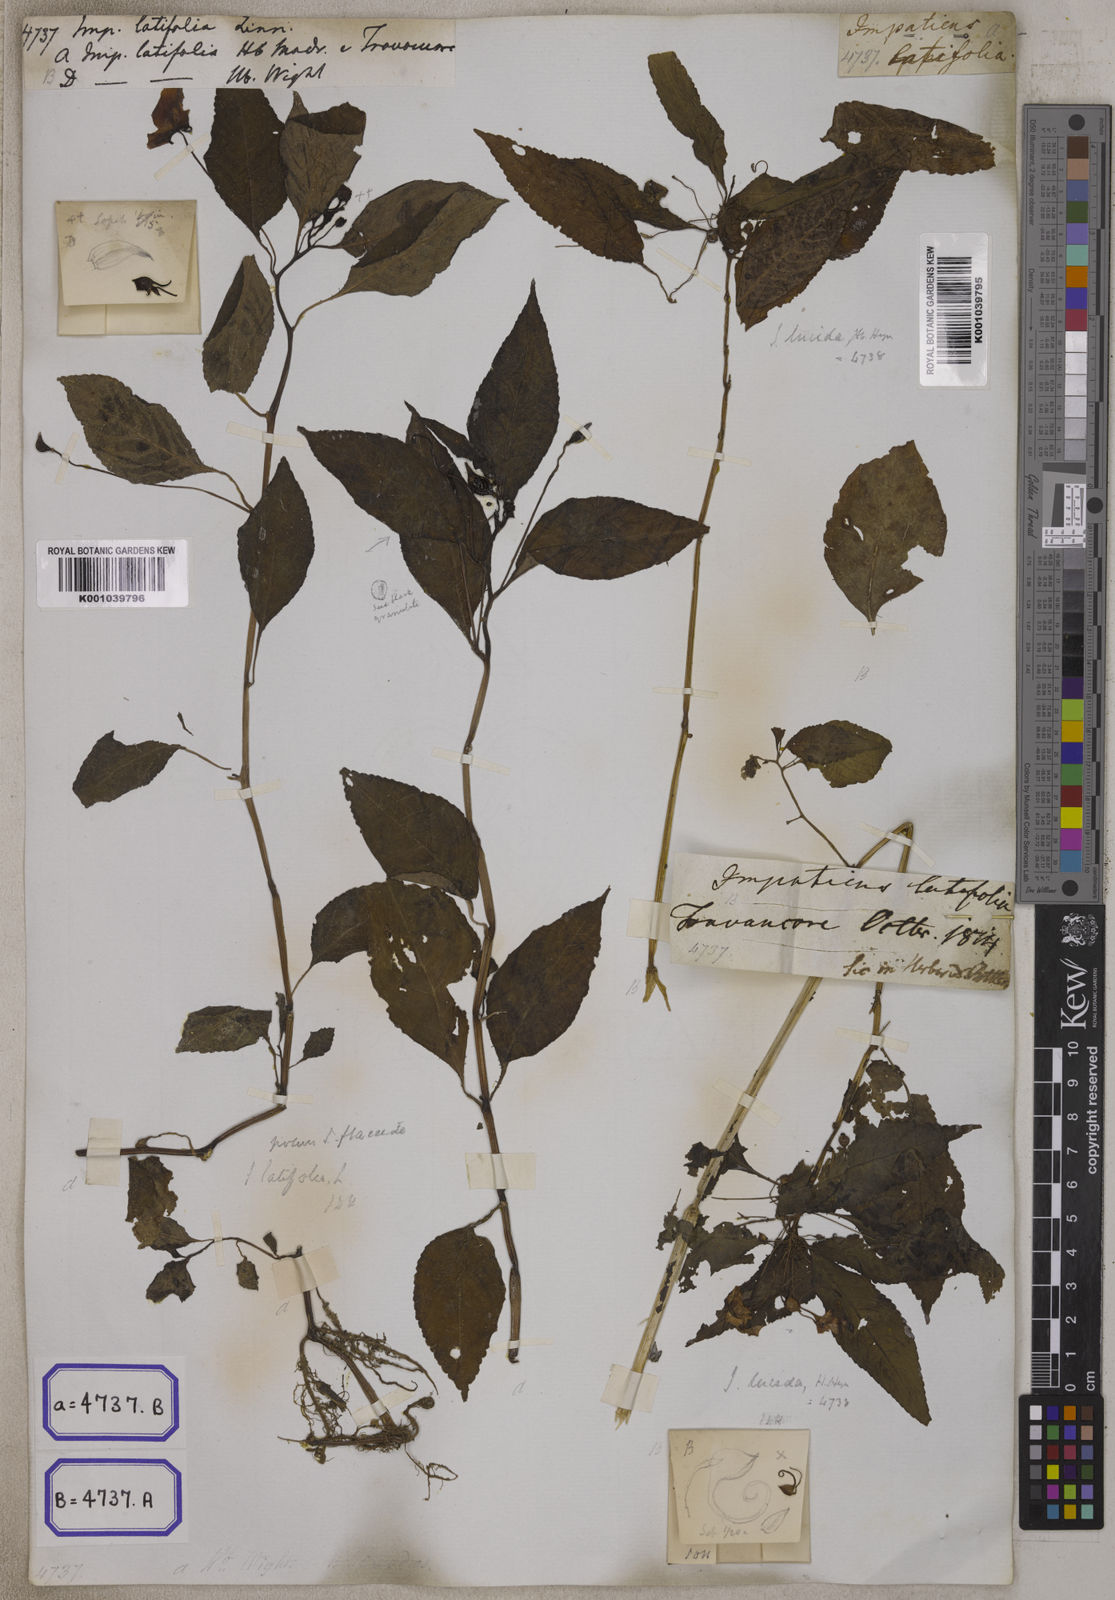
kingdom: Plantae
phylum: Tracheophyta
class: Magnoliopsida
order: Ericales
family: Balsaminaceae
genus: Impatiens
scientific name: Impatiens latifolia
